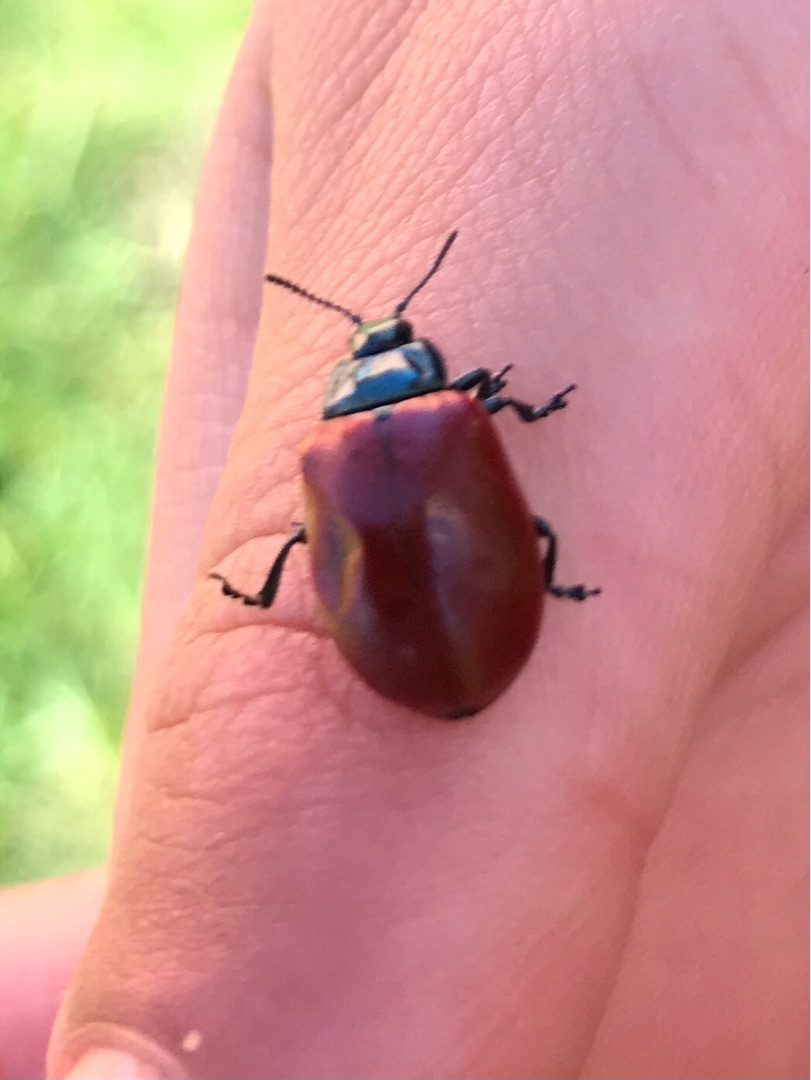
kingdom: Animalia
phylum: Arthropoda
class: Insecta
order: Coleoptera
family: Chrysomelidae
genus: Chrysomela
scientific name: Chrysomela populi
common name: Poppelbladbille
